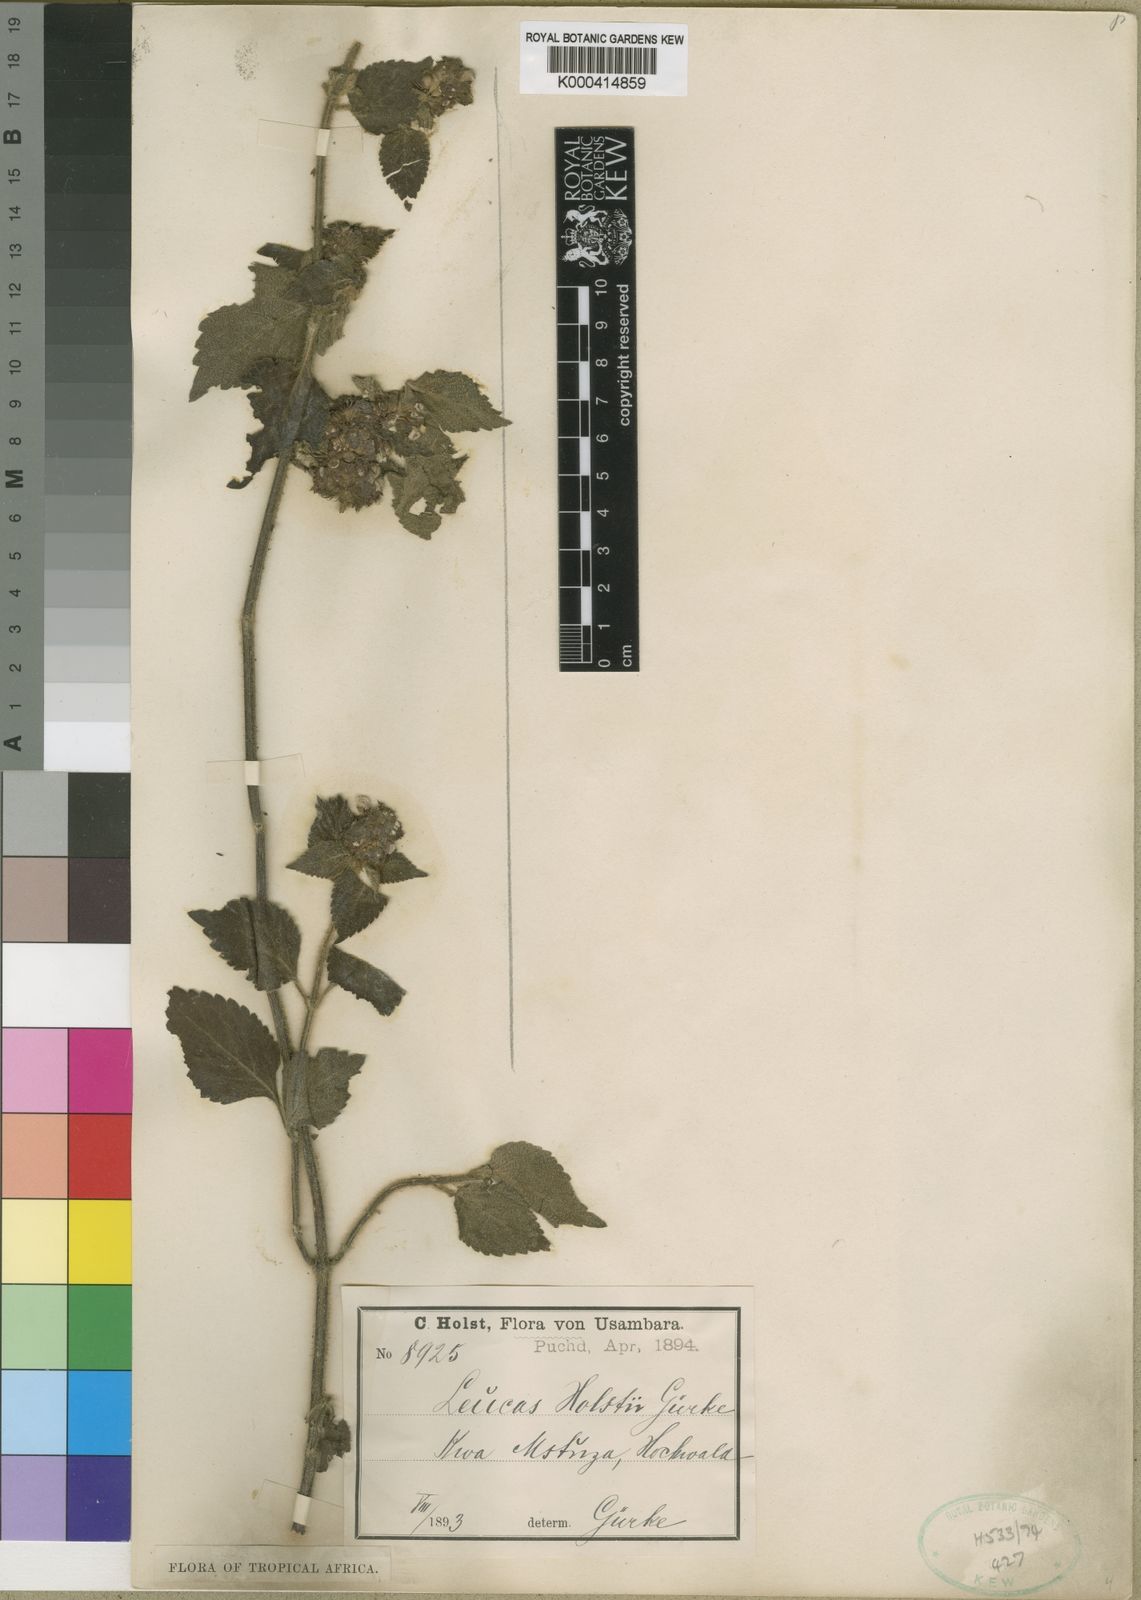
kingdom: Plantae
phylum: Tracheophyta
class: Magnoliopsida
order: Lamiales
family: Lamiaceae
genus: Leucas
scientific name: Leucas
